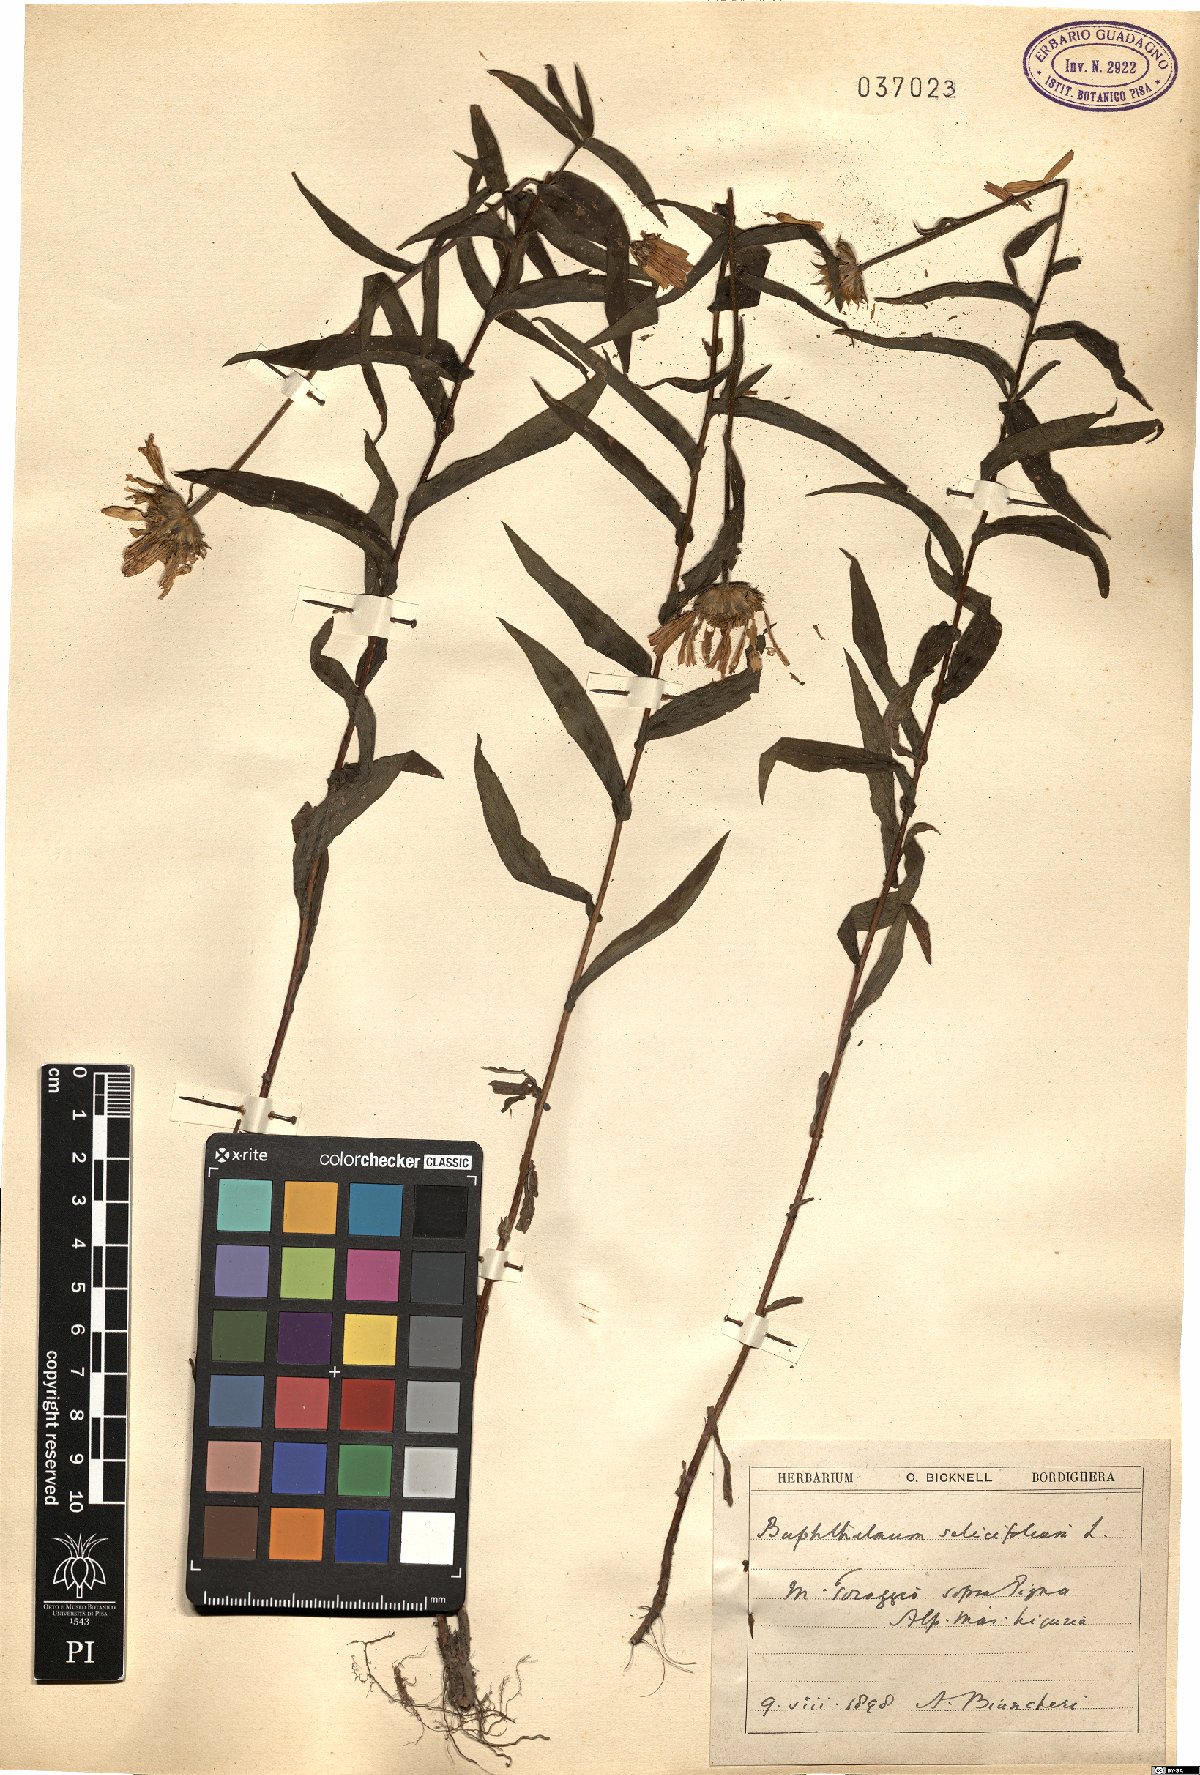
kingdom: Plantae
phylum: Tracheophyta
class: Magnoliopsida
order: Asterales
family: Asteraceae
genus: Buphthalmum
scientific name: Buphthalmum salicifolium
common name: Willow-leaved yellow-oxeye
